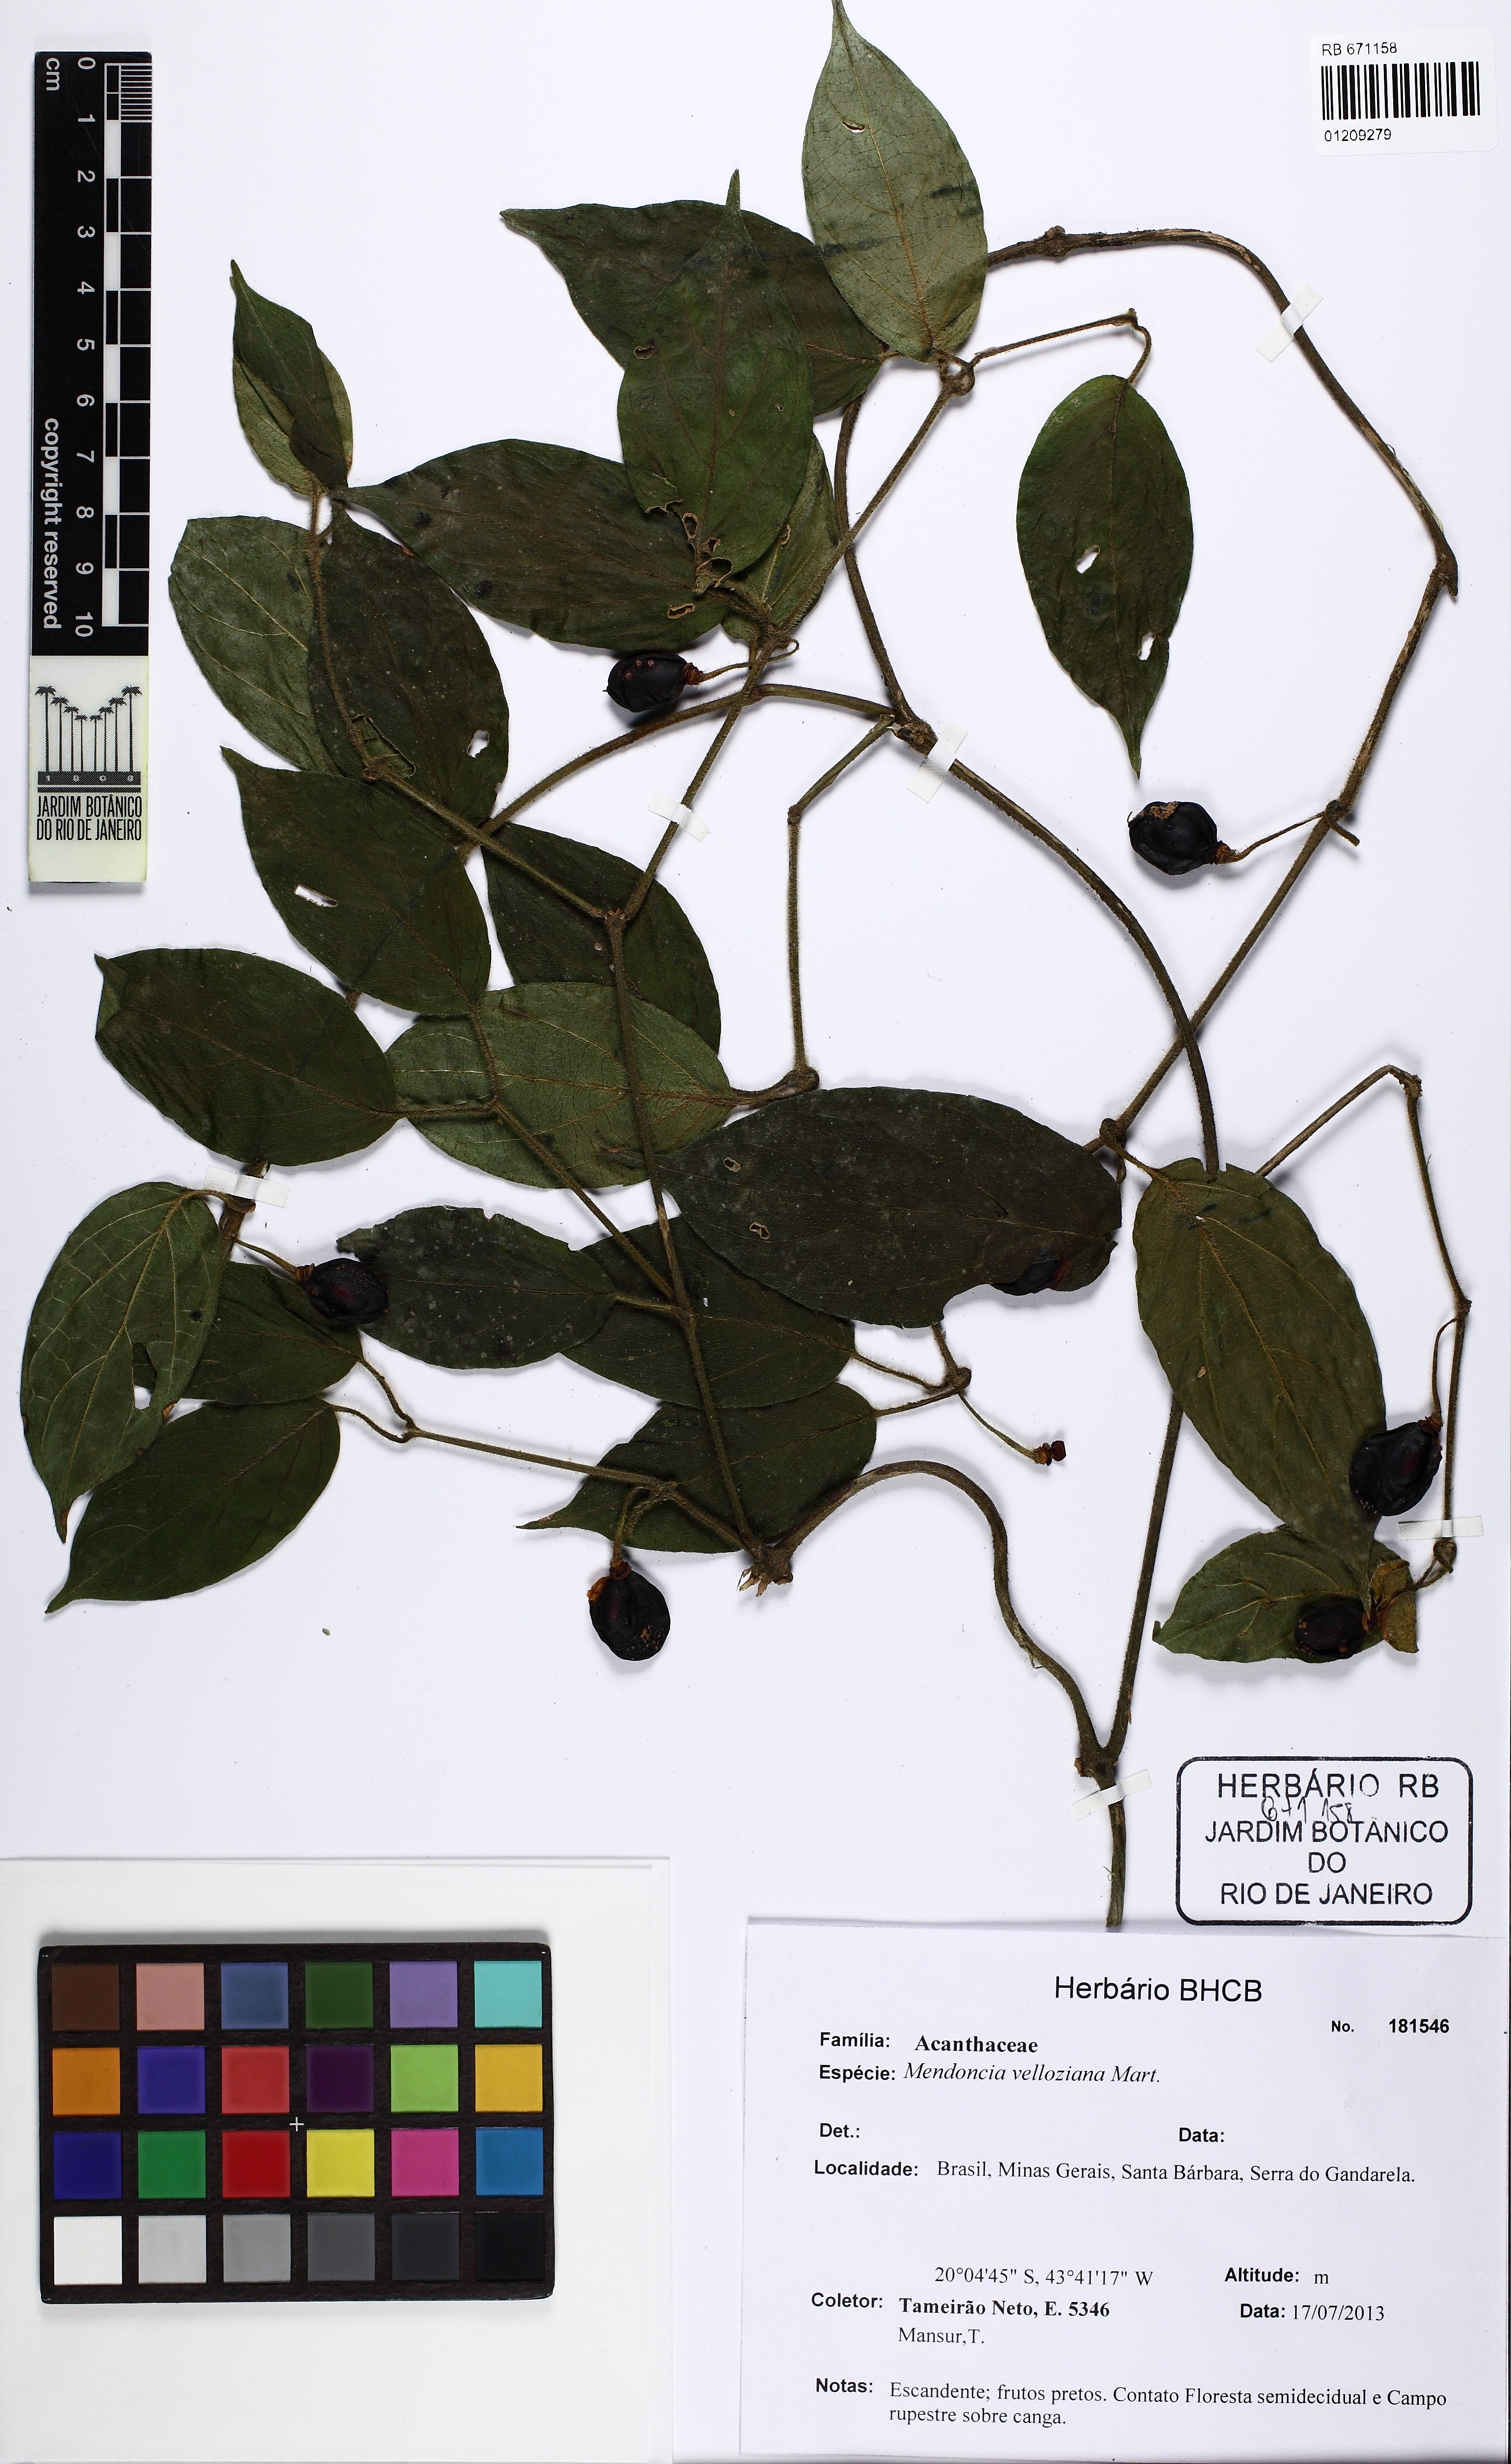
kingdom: Plantae
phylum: Tracheophyta
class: Magnoliopsida
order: Lamiales
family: Acanthaceae
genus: Mendoncia
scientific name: Mendoncia puberula
